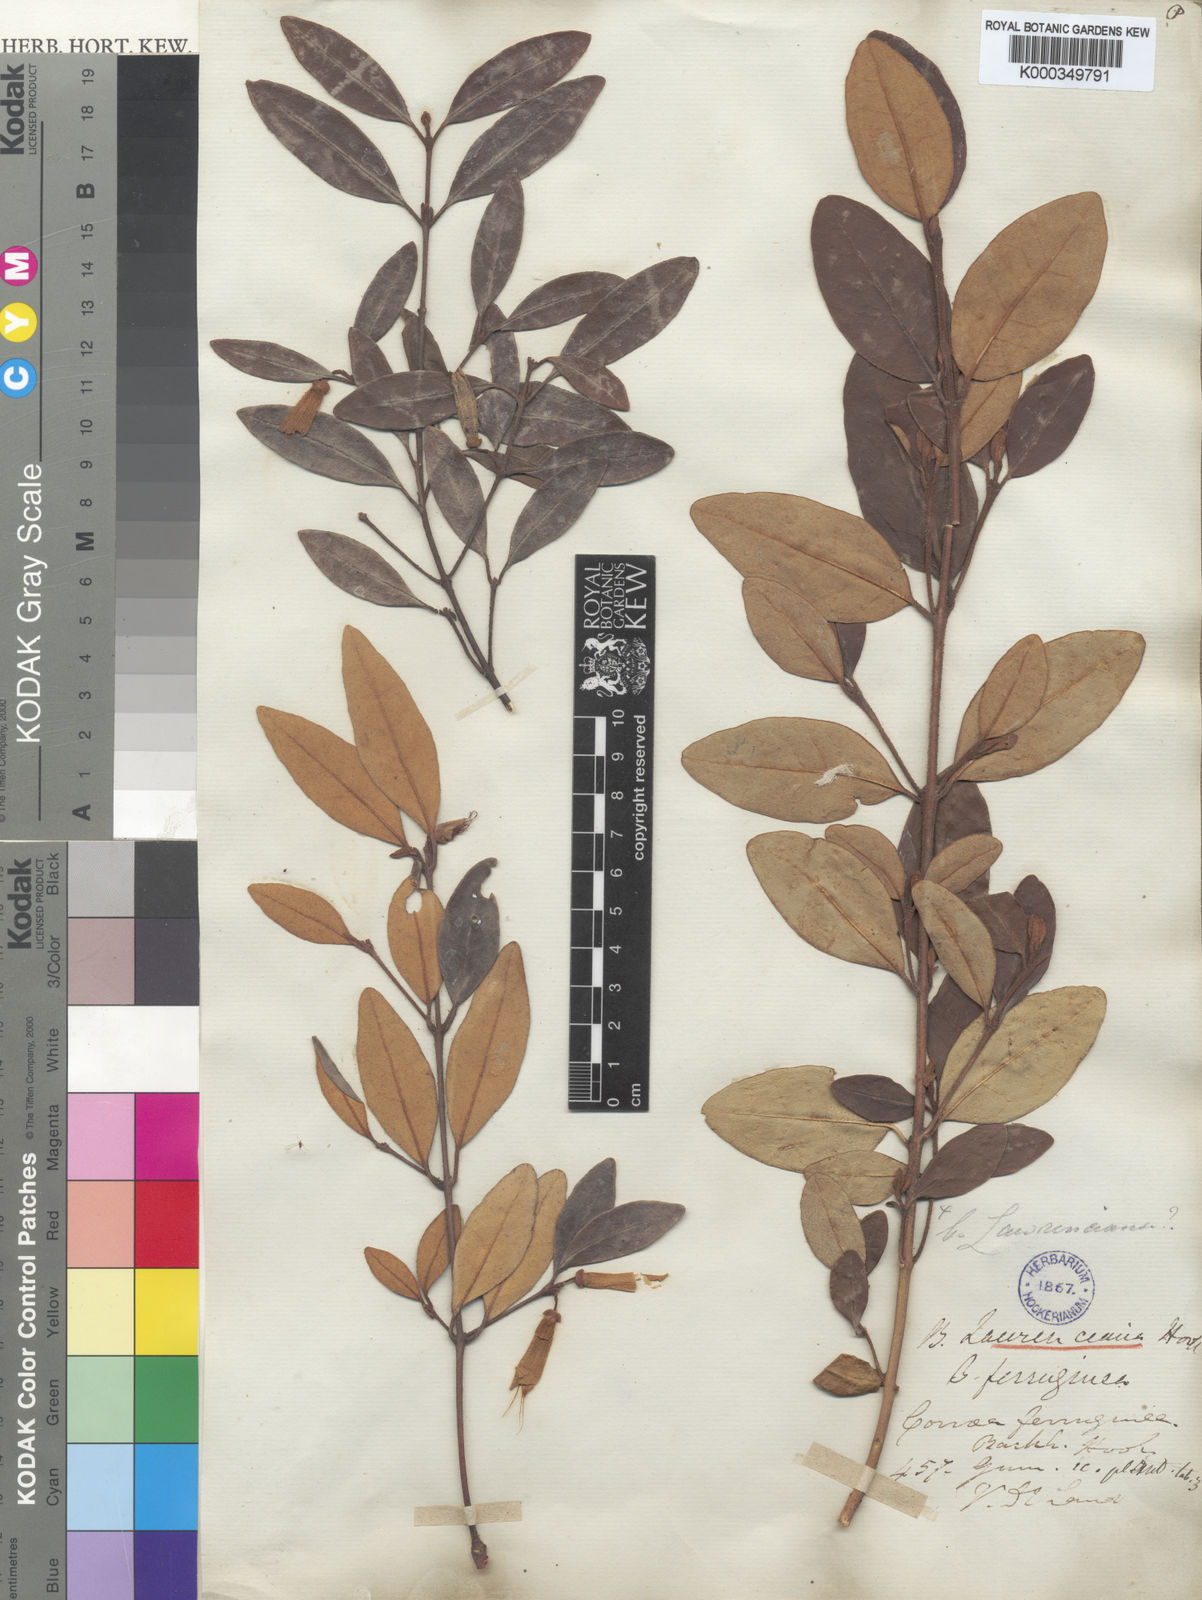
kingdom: Plantae
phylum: Tracheophyta
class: Magnoliopsida
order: Sapindales
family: Rutaceae
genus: Correa
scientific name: Correa
